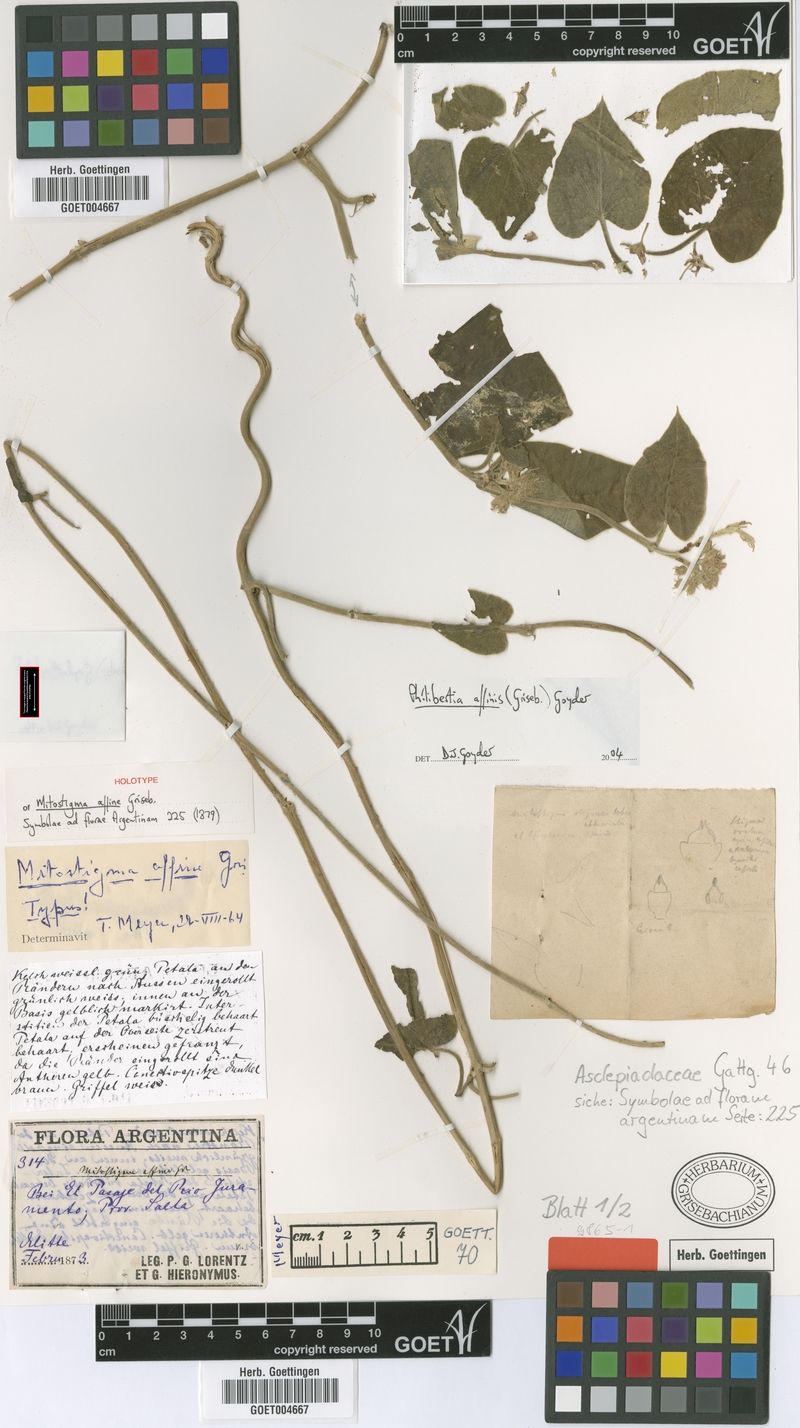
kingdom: Plantae
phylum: Tracheophyta
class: Magnoliopsida
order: Gentianales
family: Apocynaceae
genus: Philibertia
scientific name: Philibertia affinis
